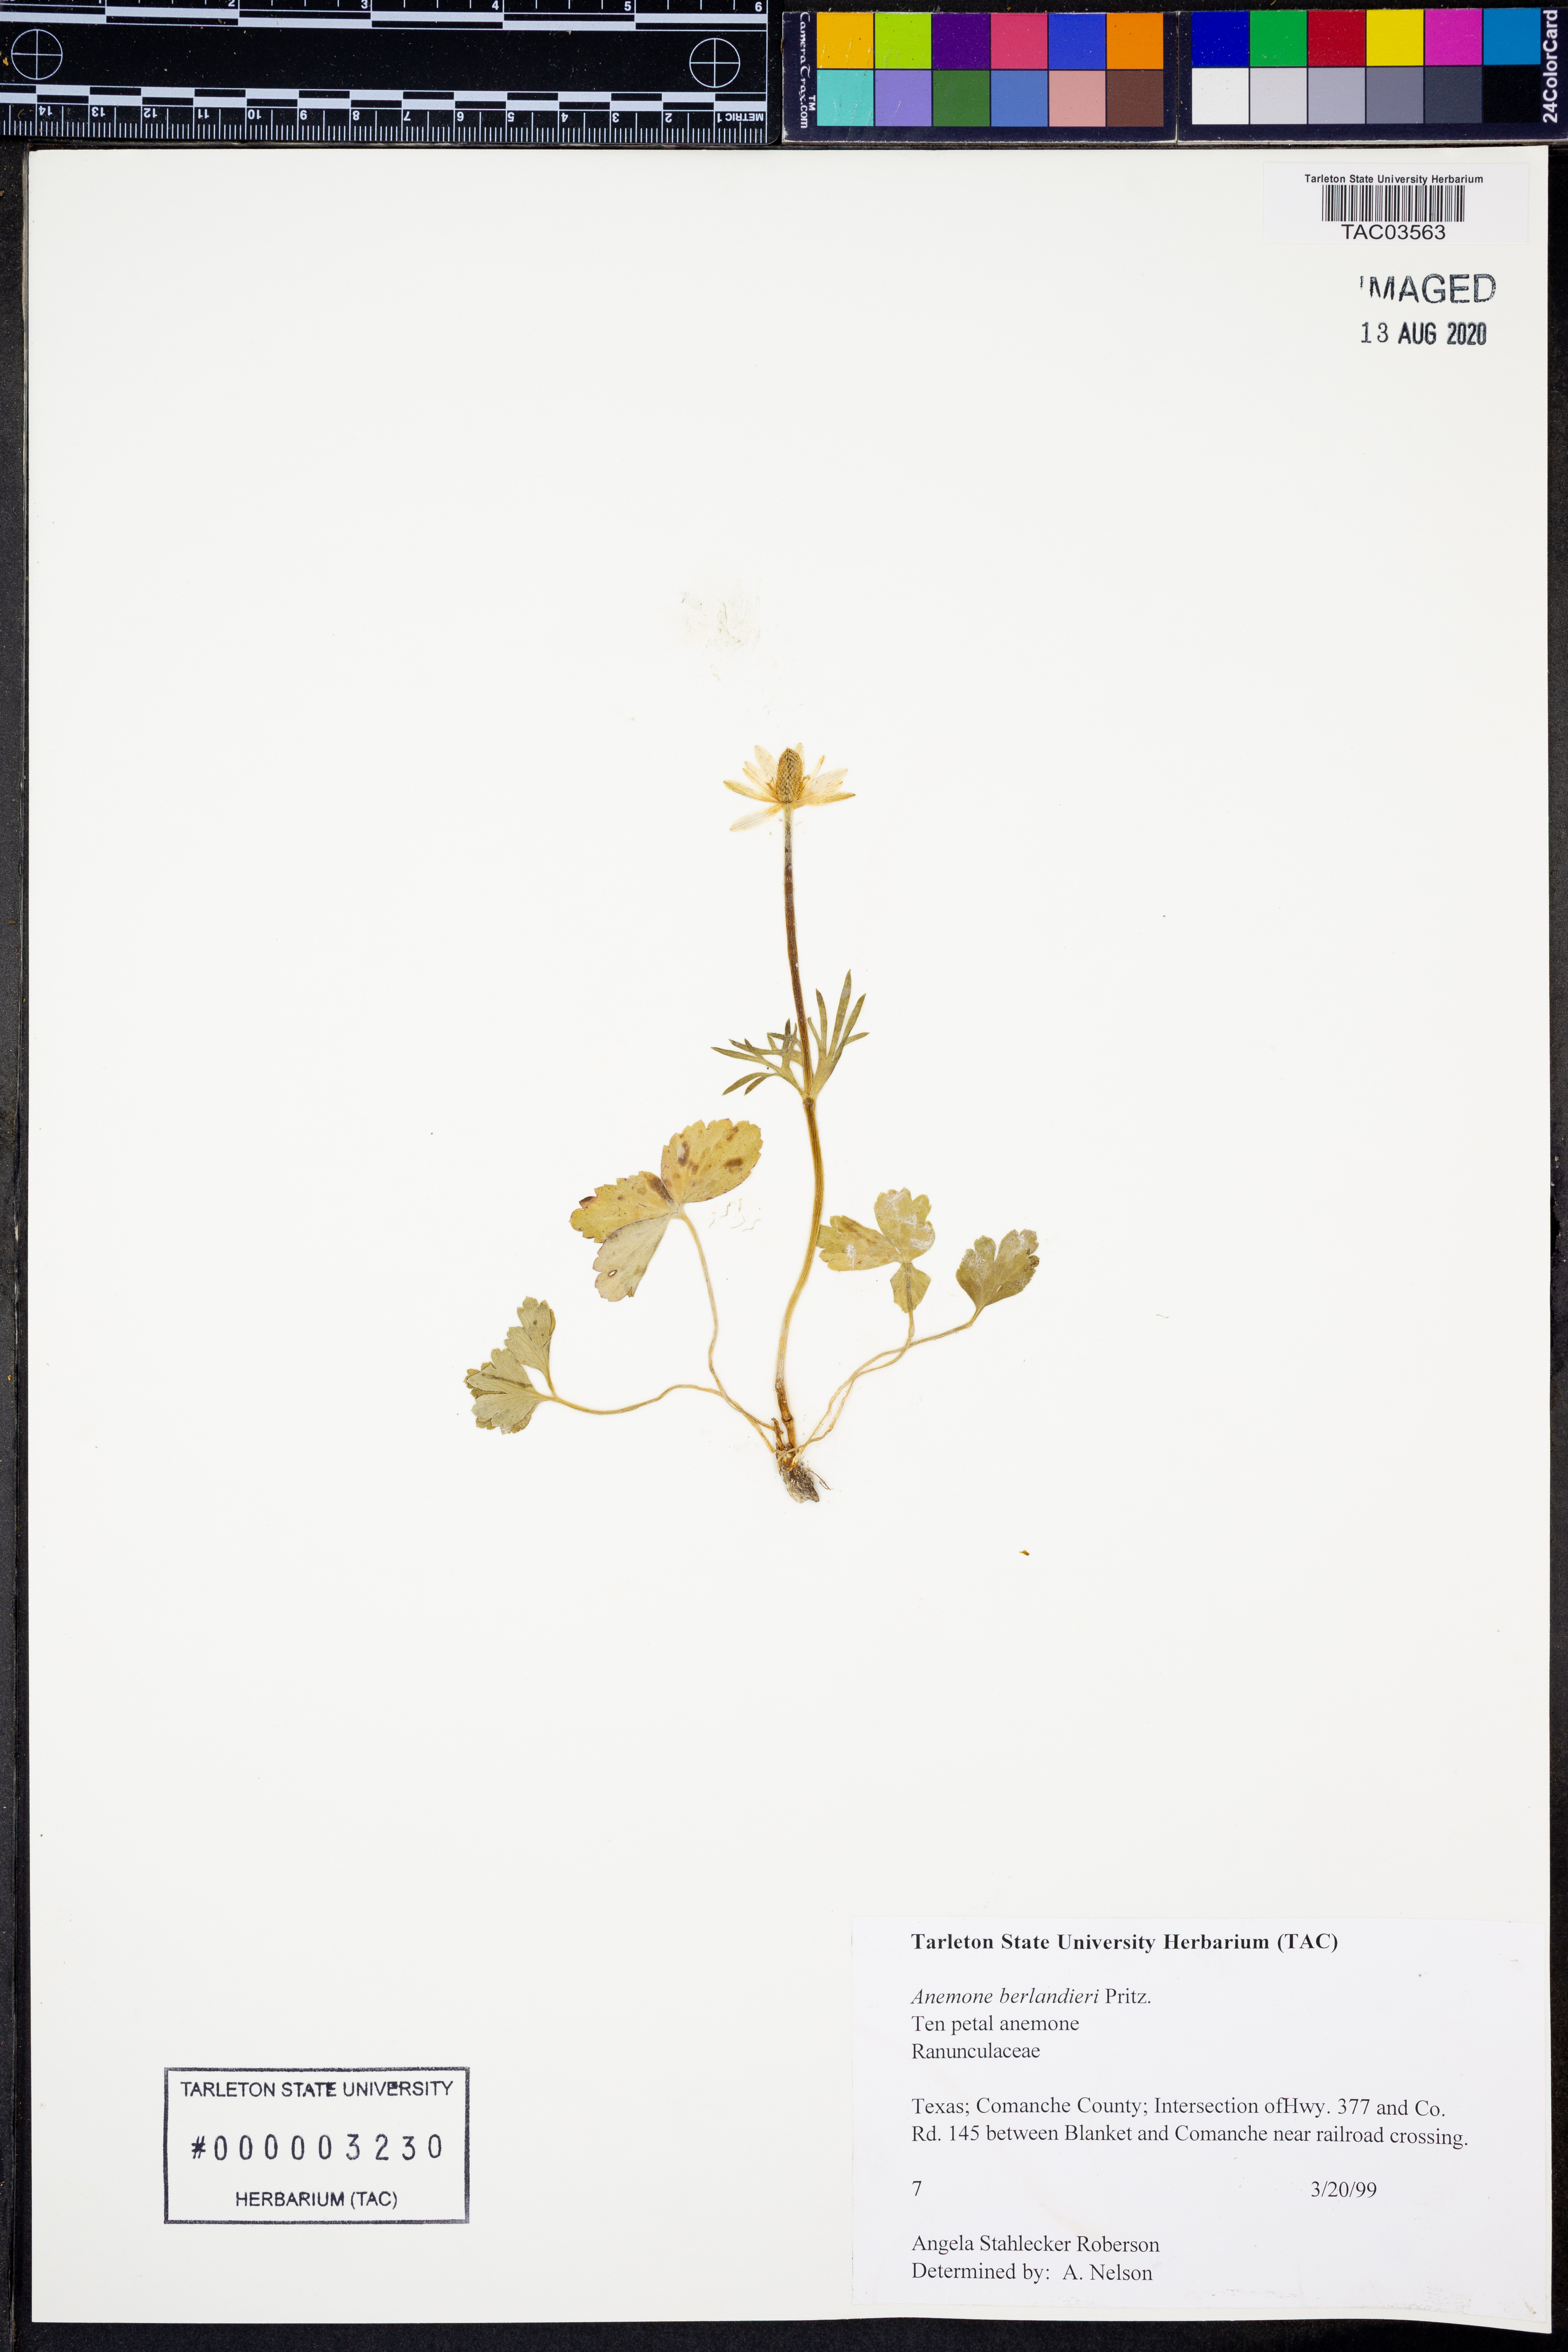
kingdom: Plantae
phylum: Tracheophyta
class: Magnoliopsida
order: Ranunculales
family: Ranunculaceae
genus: Anemone
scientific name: Anemone berlandieri
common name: Ten-petal anemone
